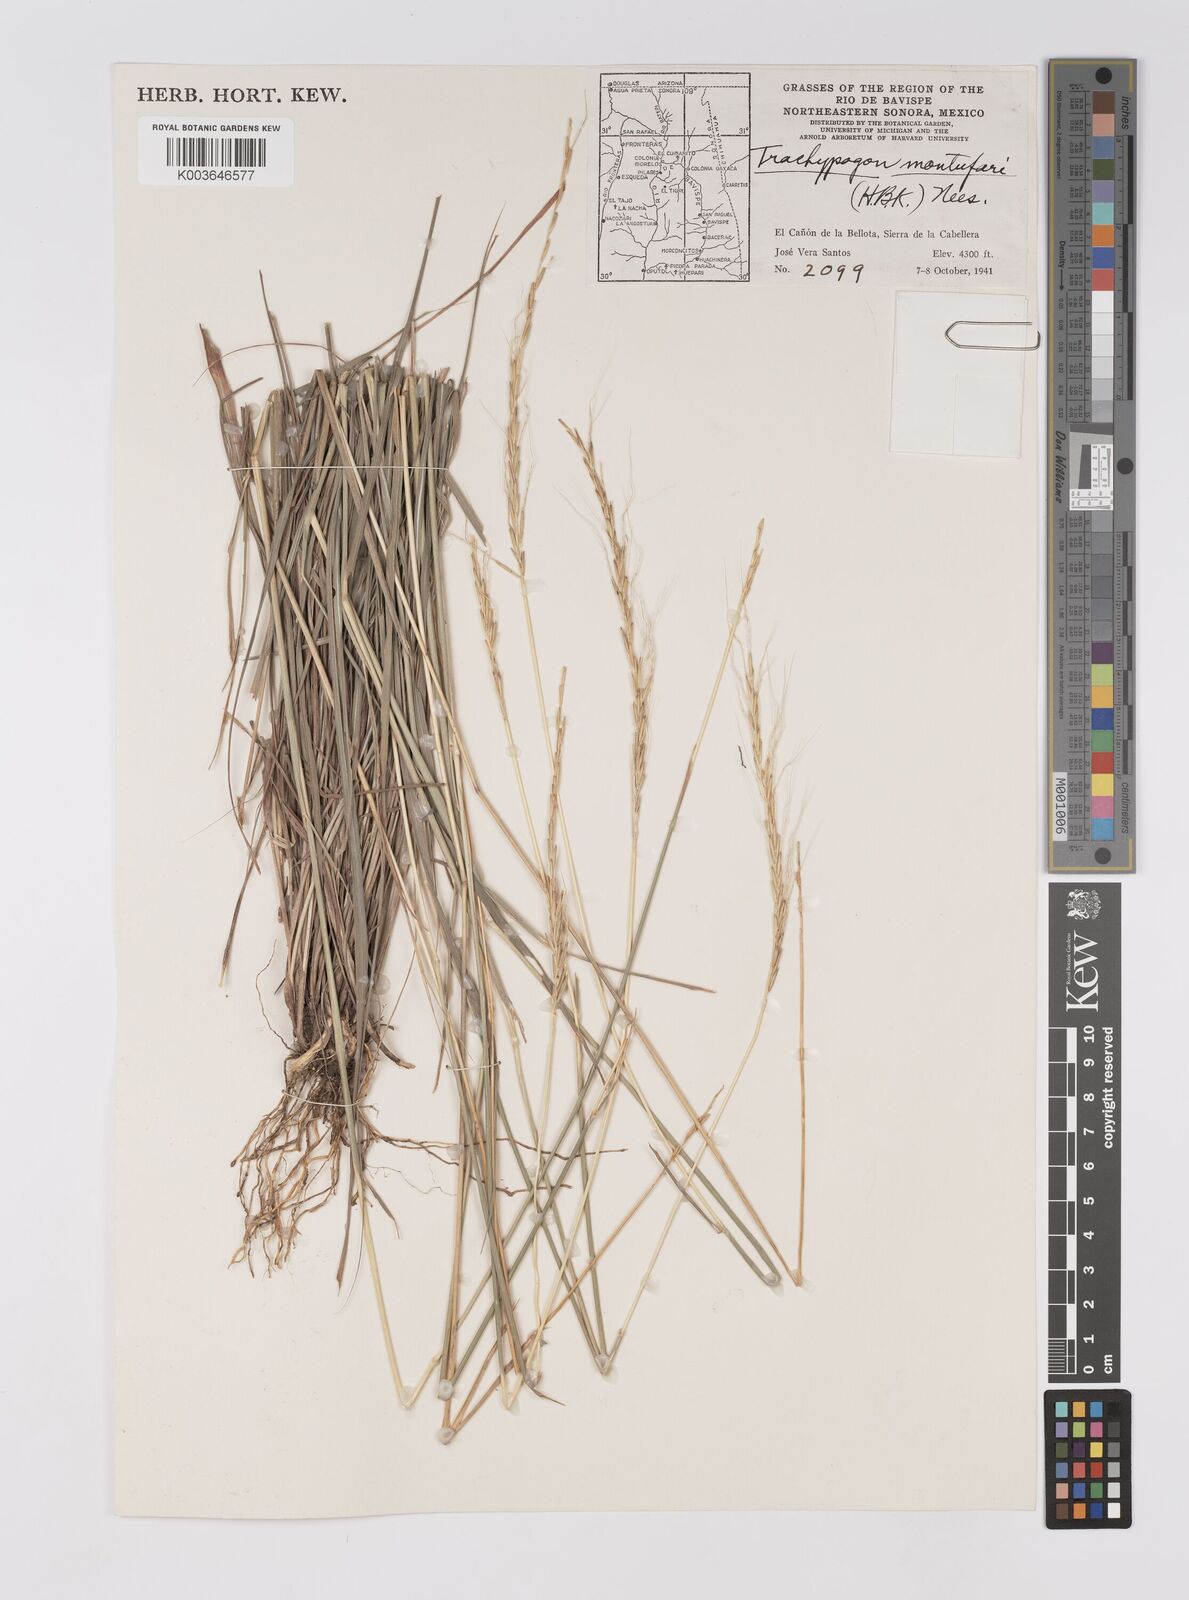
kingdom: Plantae
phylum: Tracheophyta
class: Liliopsida
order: Poales
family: Poaceae
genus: Trachypogon
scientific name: Trachypogon spicatus
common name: Crinkle-awn
